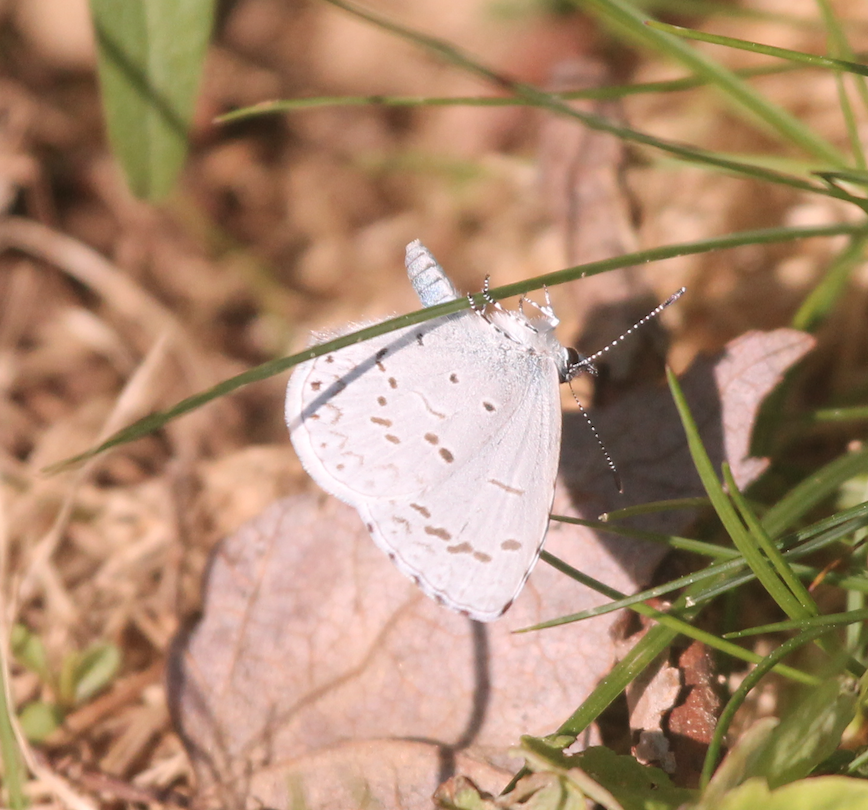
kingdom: Animalia
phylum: Arthropoda
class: Insecta
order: Lepidoptera
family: Lycaenidae
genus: Celastrina
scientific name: Celastrina ladon
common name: Spring Azure
